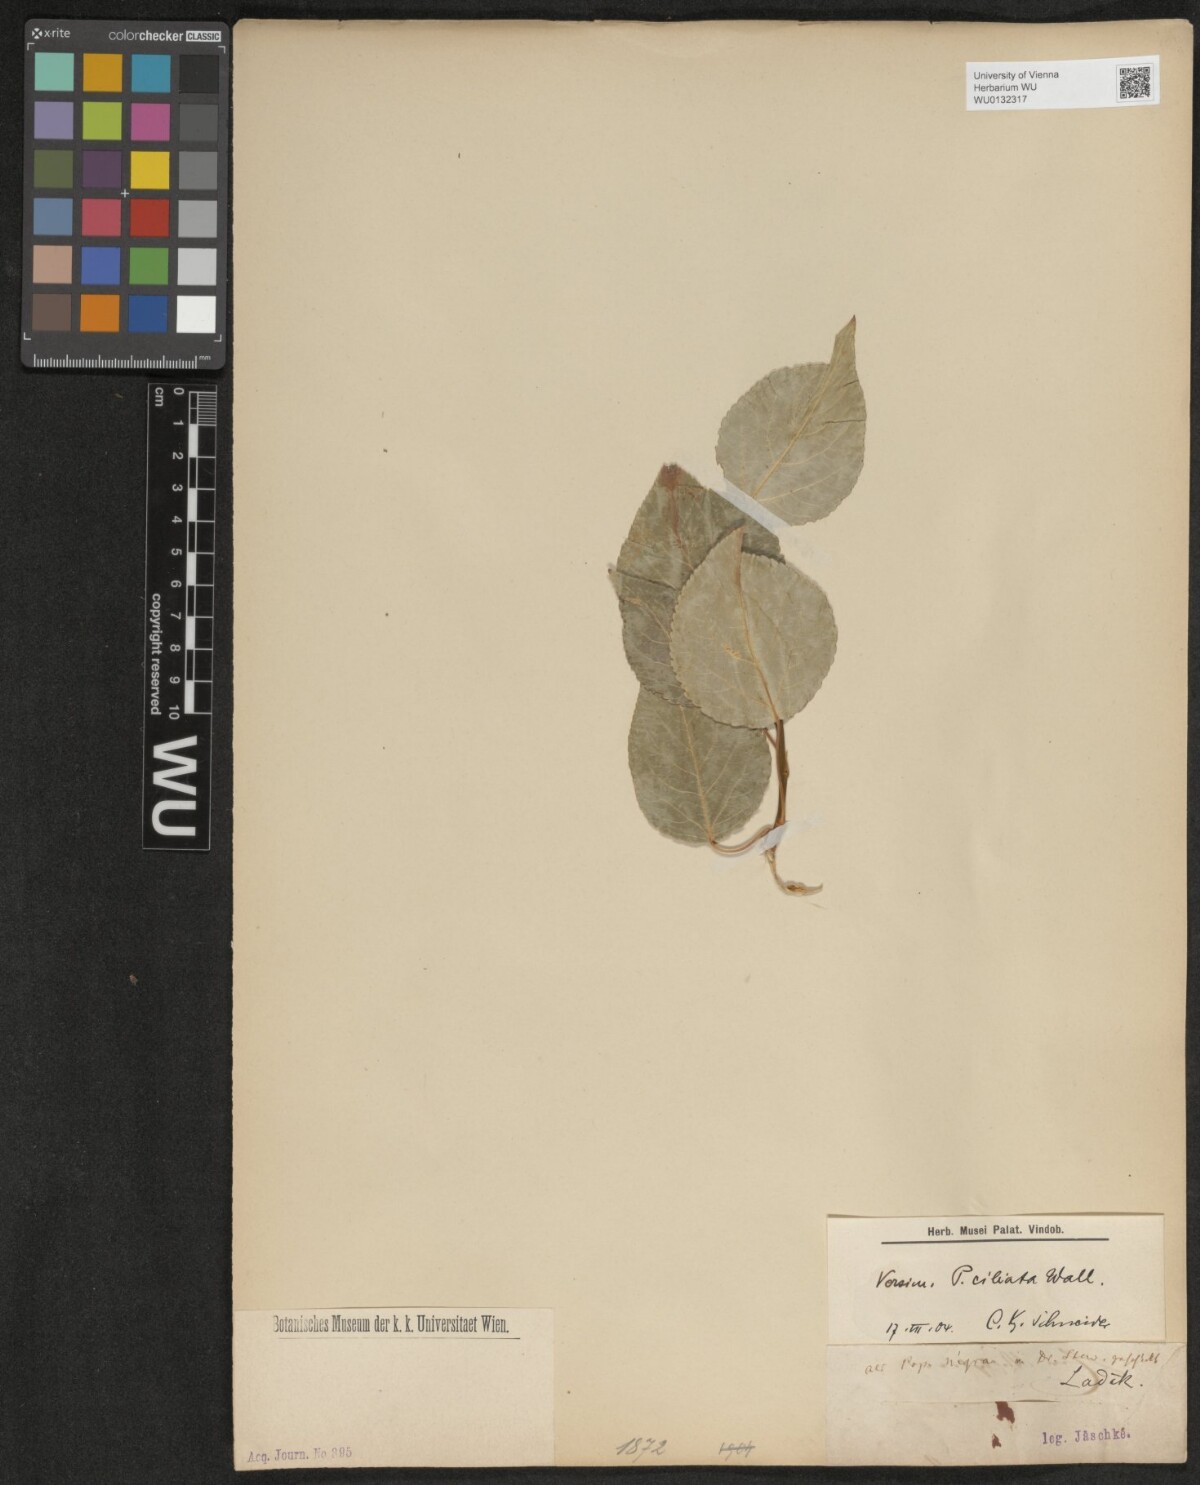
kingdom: Plantae
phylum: Tracheophyta
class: Magnoliopsida
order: Malpighiales
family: Salicaceae
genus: Populus
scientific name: Populus ciliata
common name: Himalayan poplar
